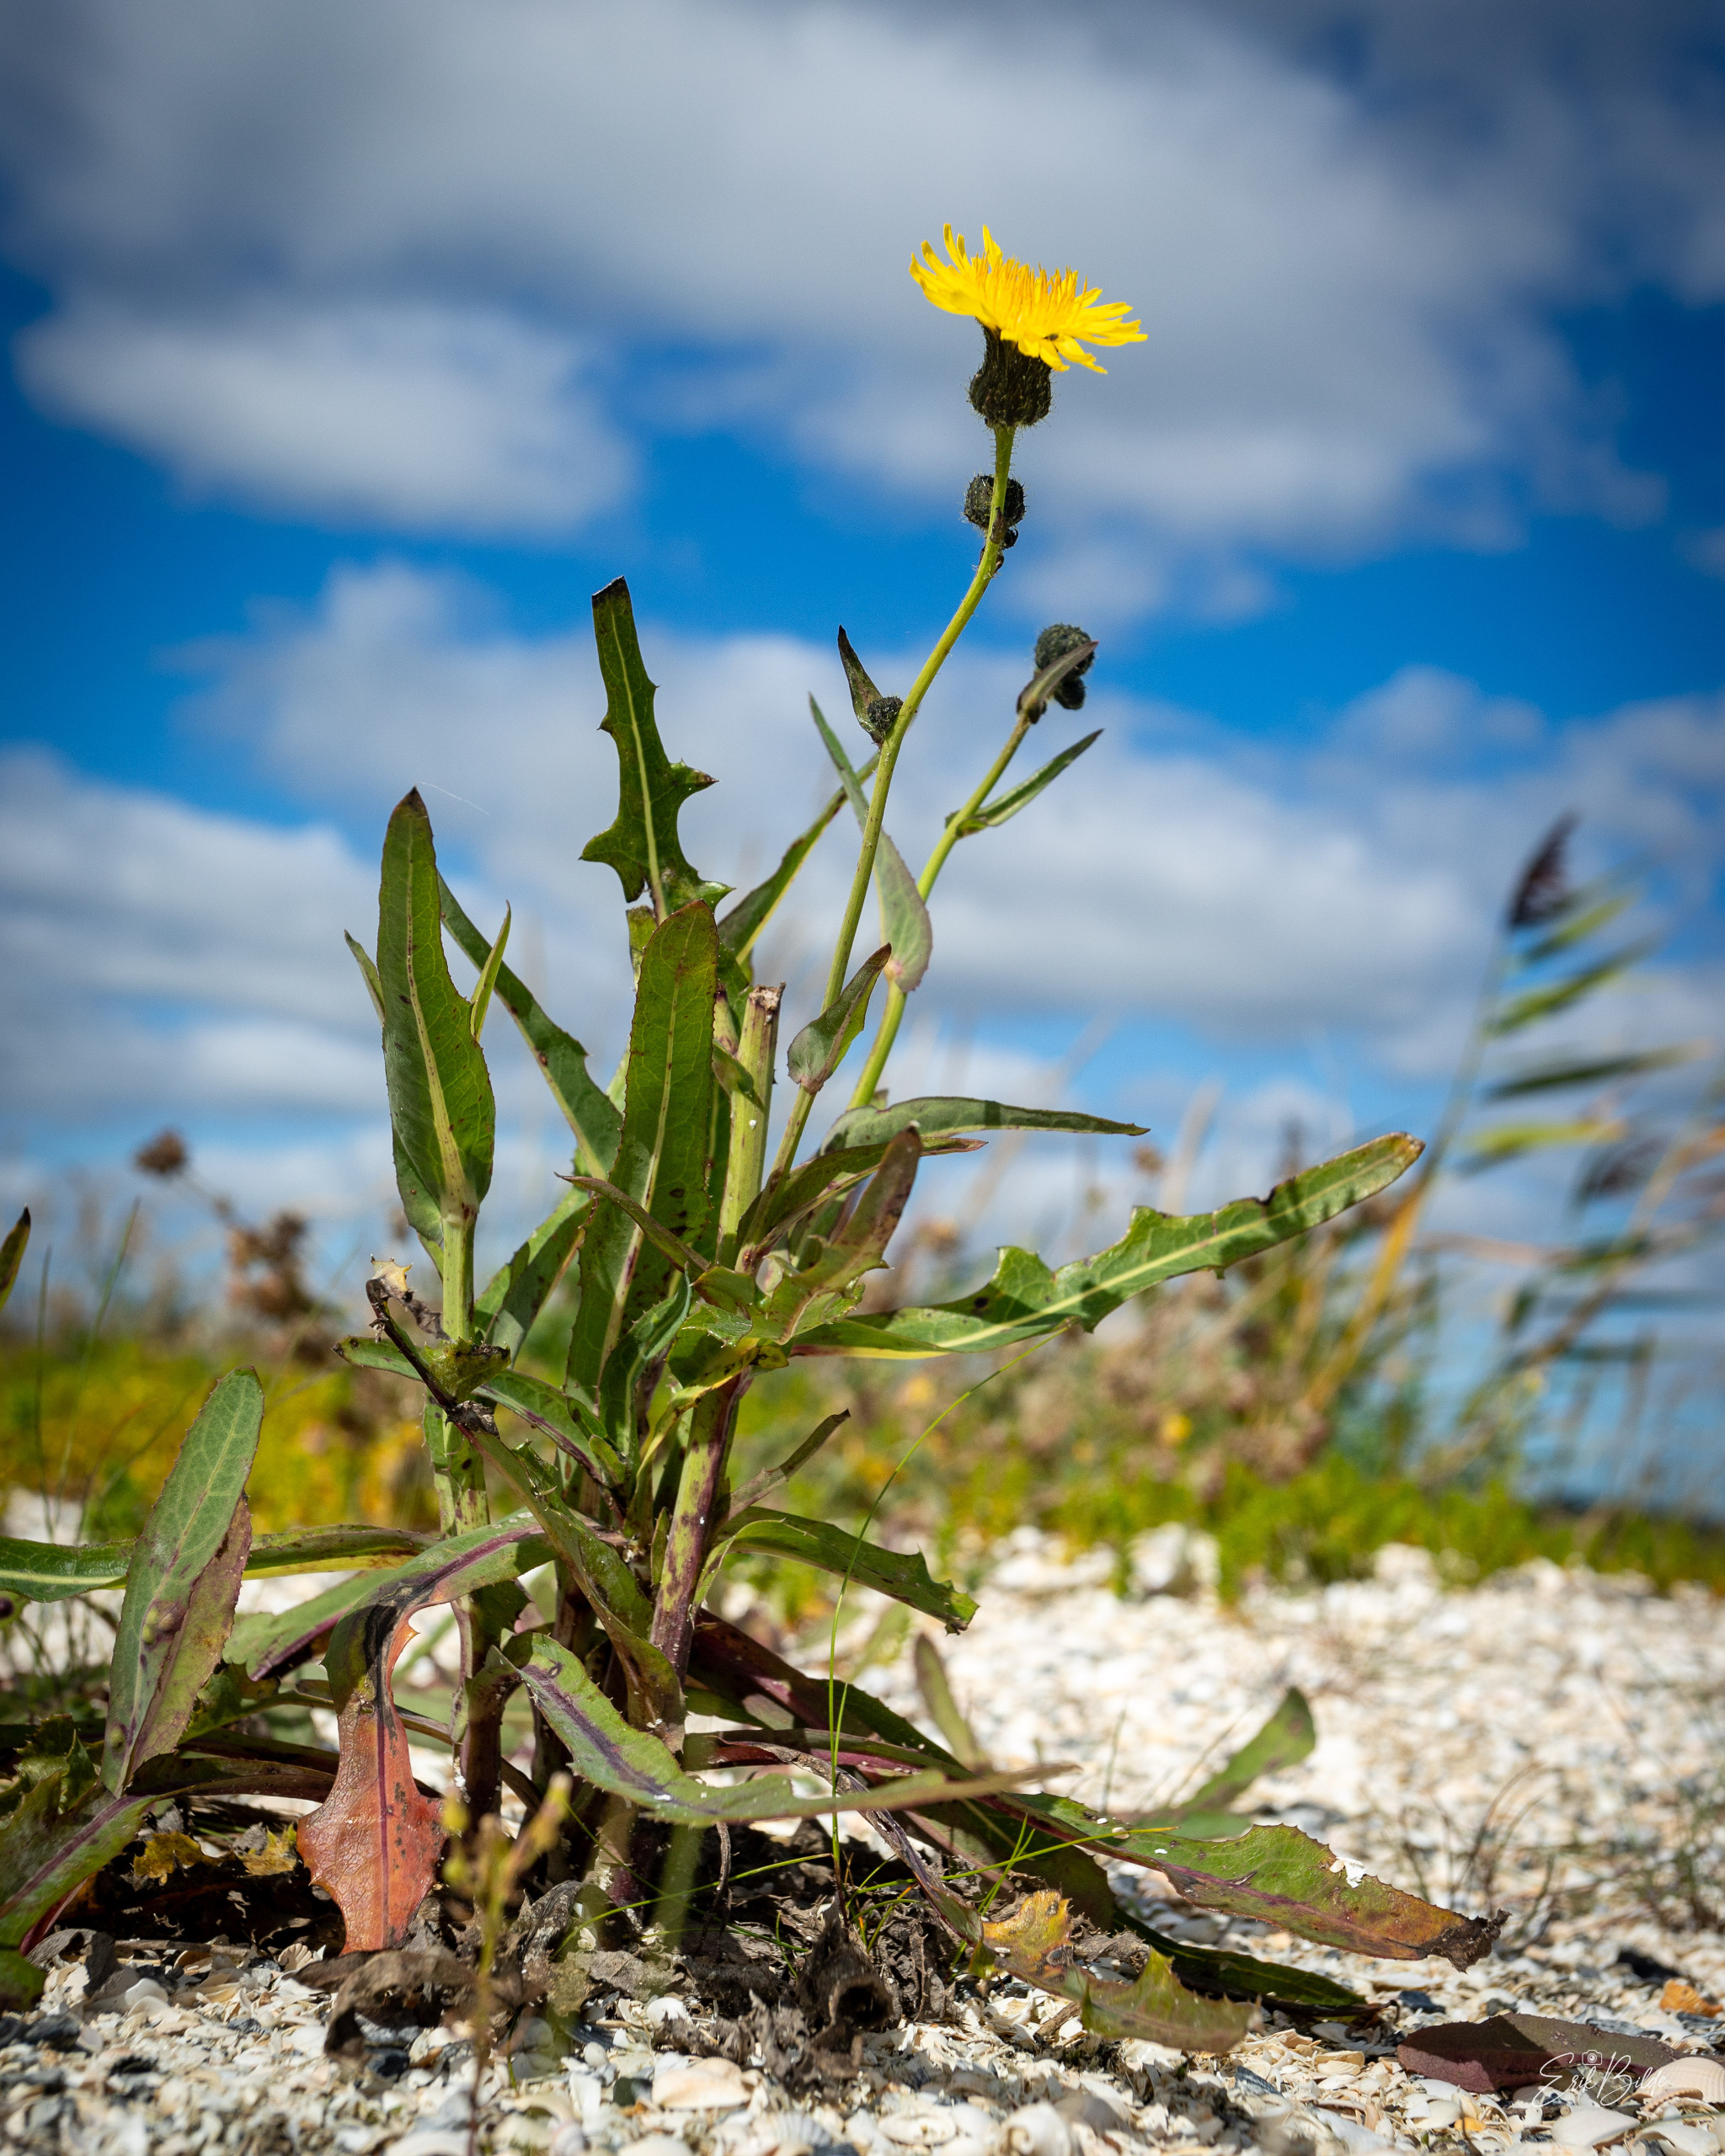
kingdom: Plantae
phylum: Tracheophyta
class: Magnoliopsida
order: Asterales
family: Asteraceae
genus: Sonchus
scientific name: Sonchus arvensis
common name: Ager-svinemælk
